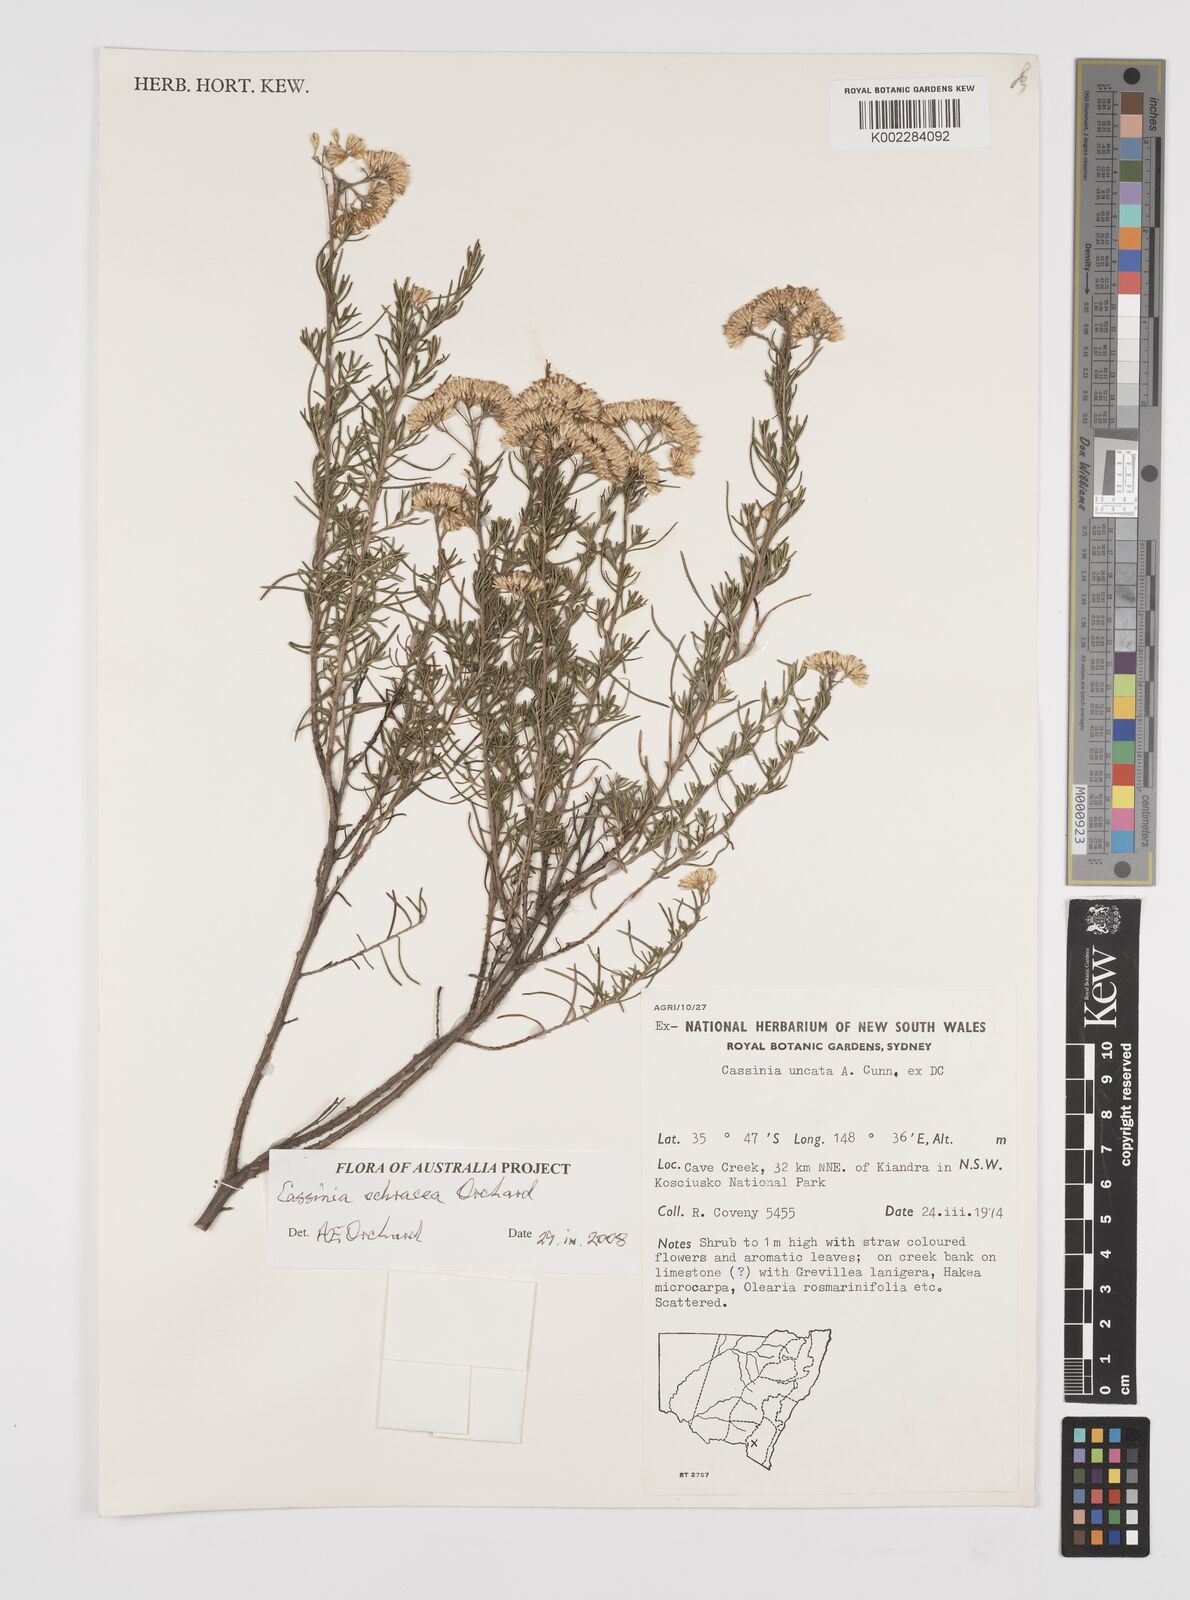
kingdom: Plantae
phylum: Tracheophyta
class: Magnoliopsida
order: Asterales
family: Asteraceae
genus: Cassinia
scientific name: Cassinia ochracea
